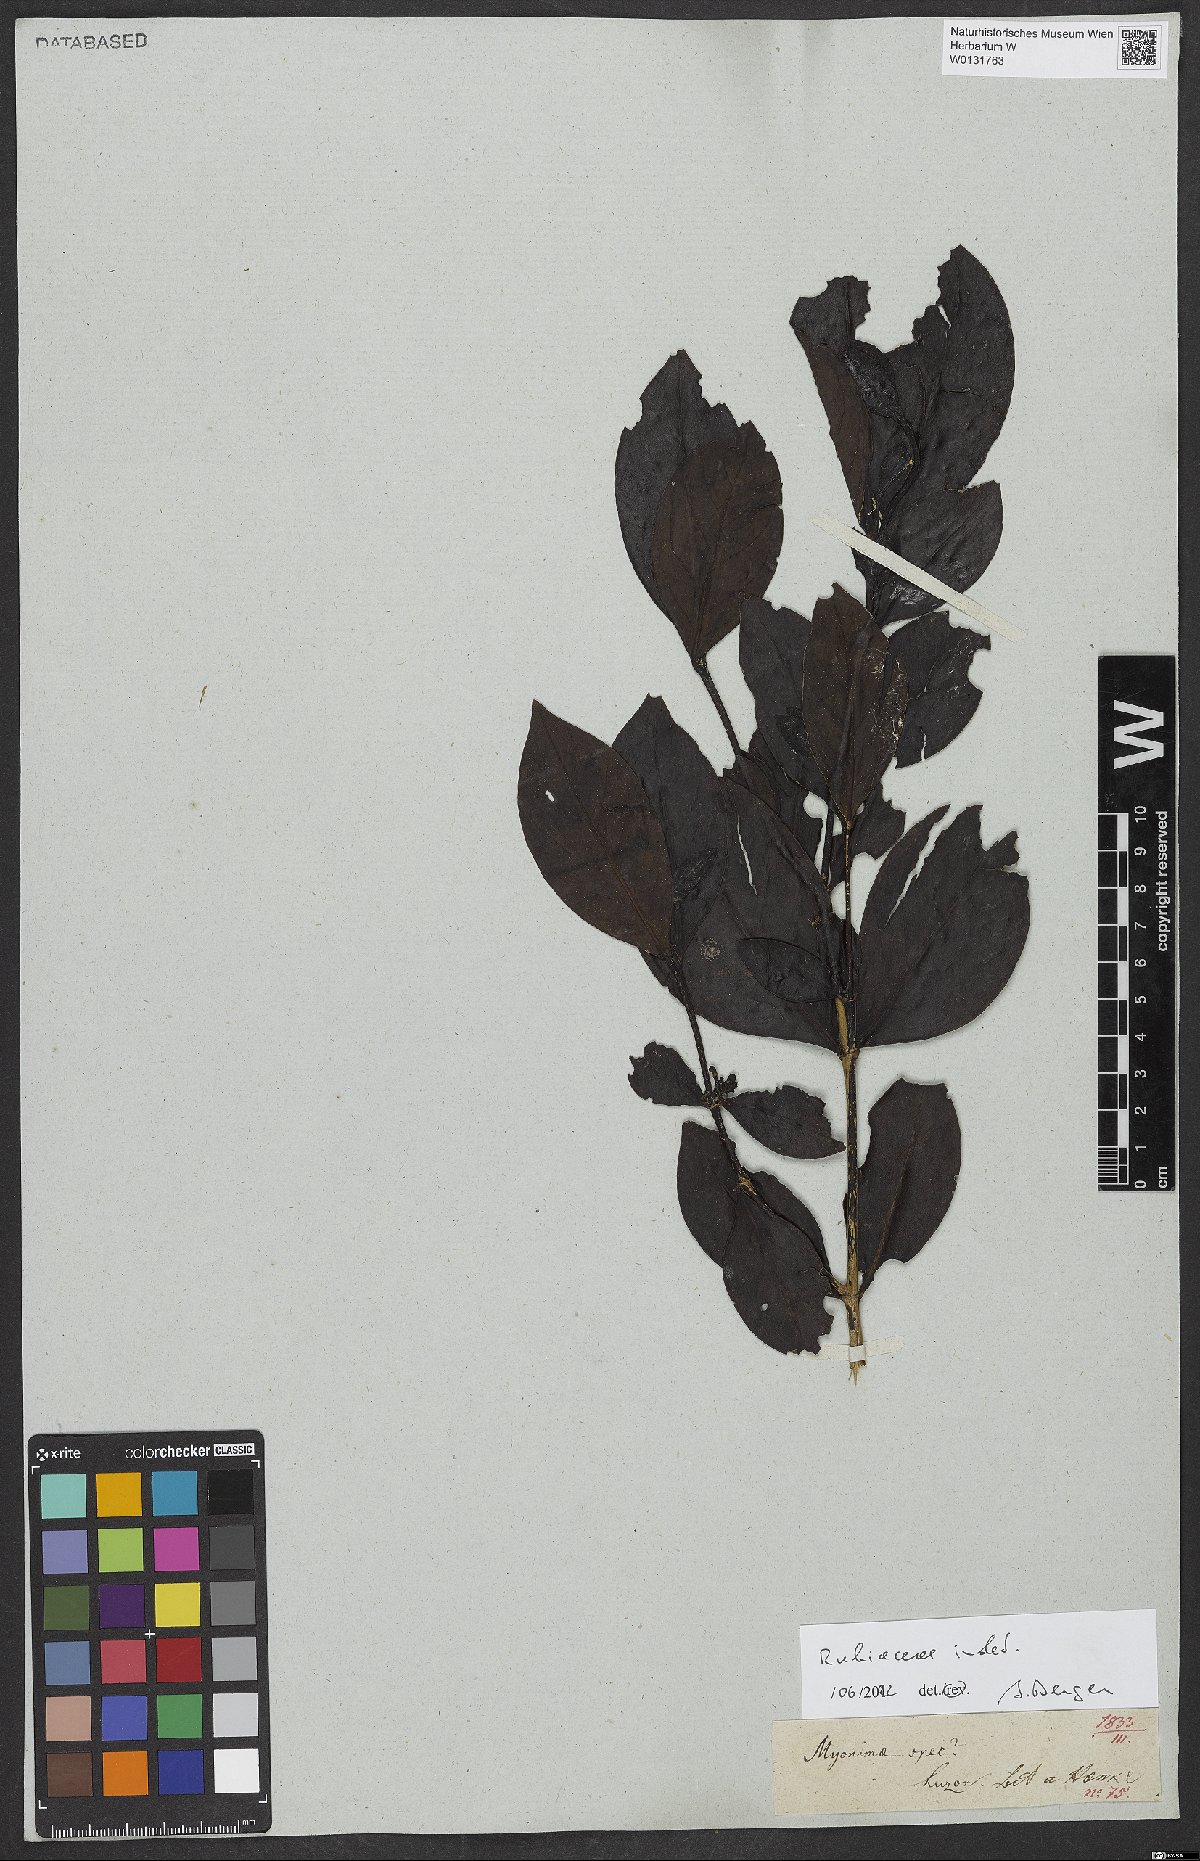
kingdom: Plantae
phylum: Tracheophyta
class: Magnoliopsida
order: Gentianales
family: Rubiaceae
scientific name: Rubiaceae
